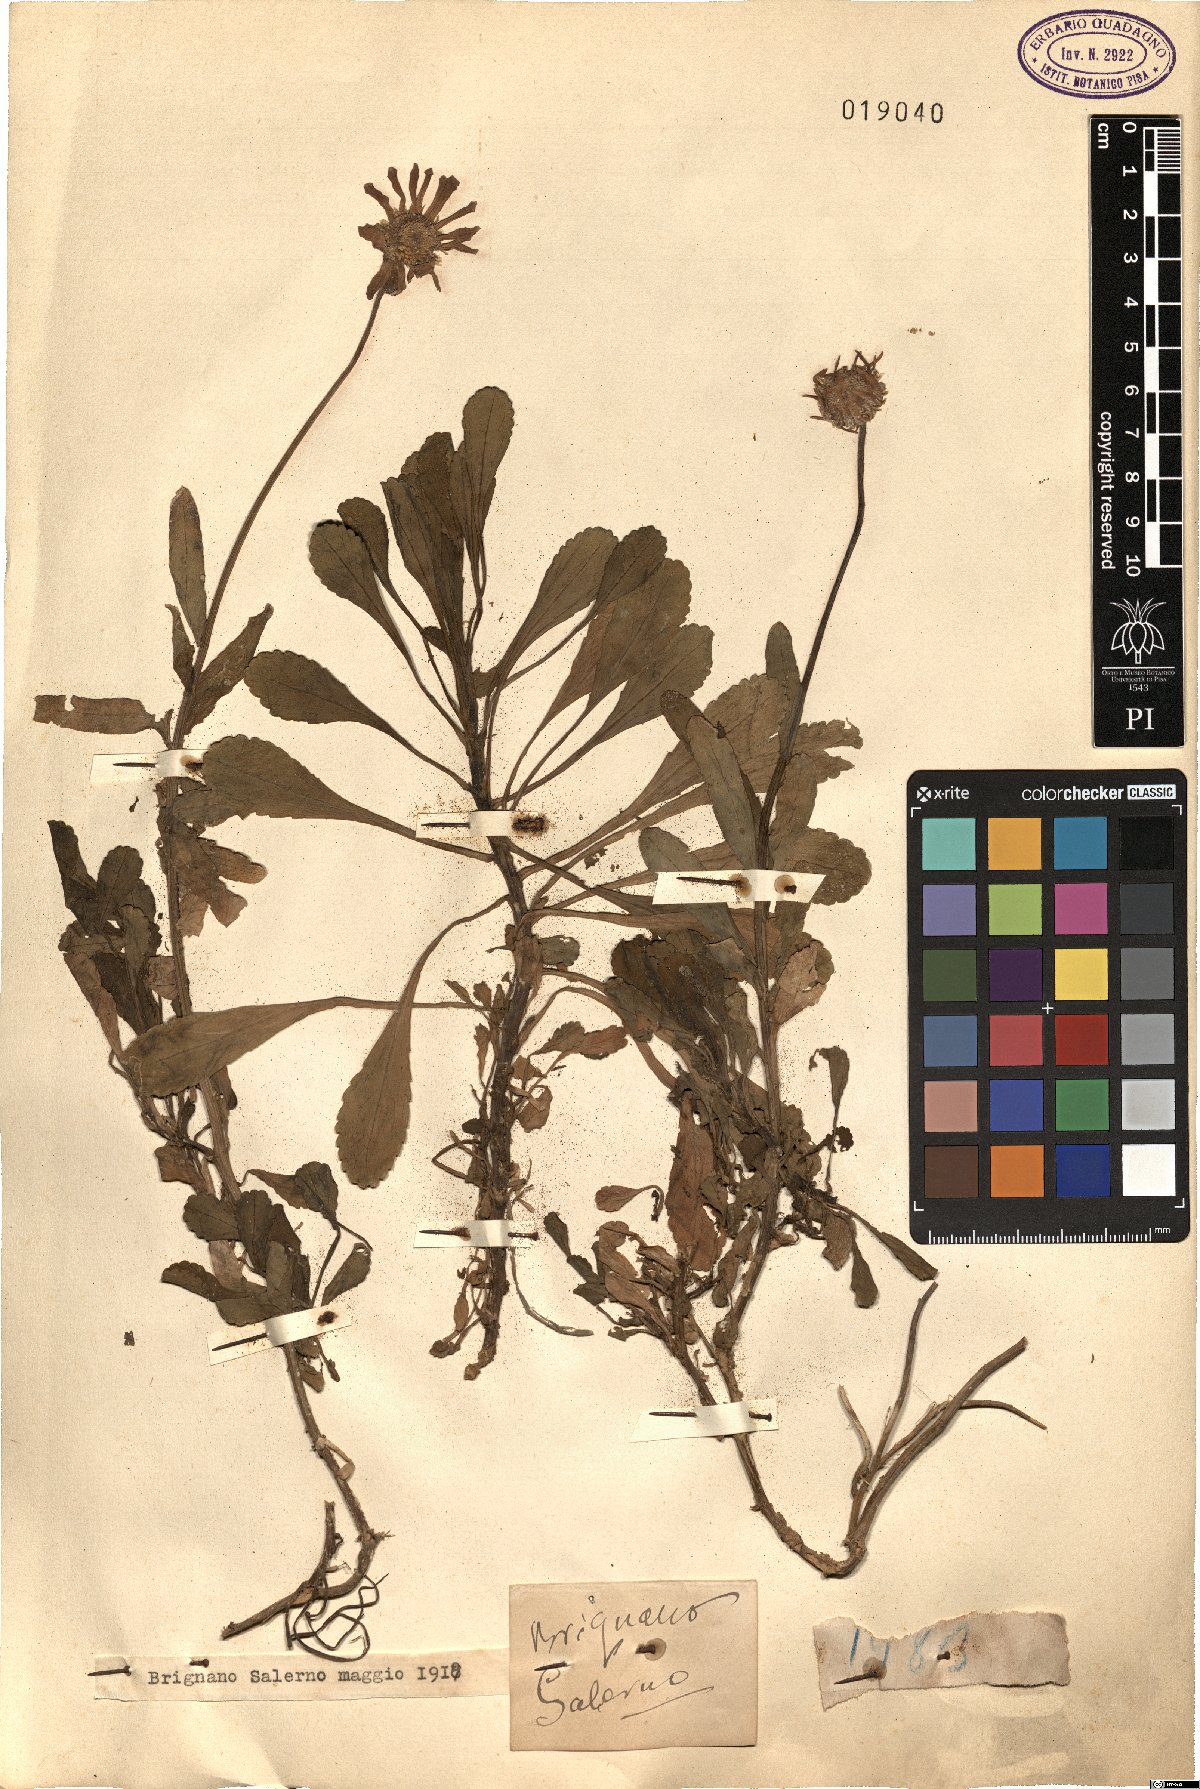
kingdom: Plantae
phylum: Tracheophyta
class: Magnoliopsida
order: Asterales
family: Asteraceae
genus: Pyrethrum
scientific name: Pyrethrum
